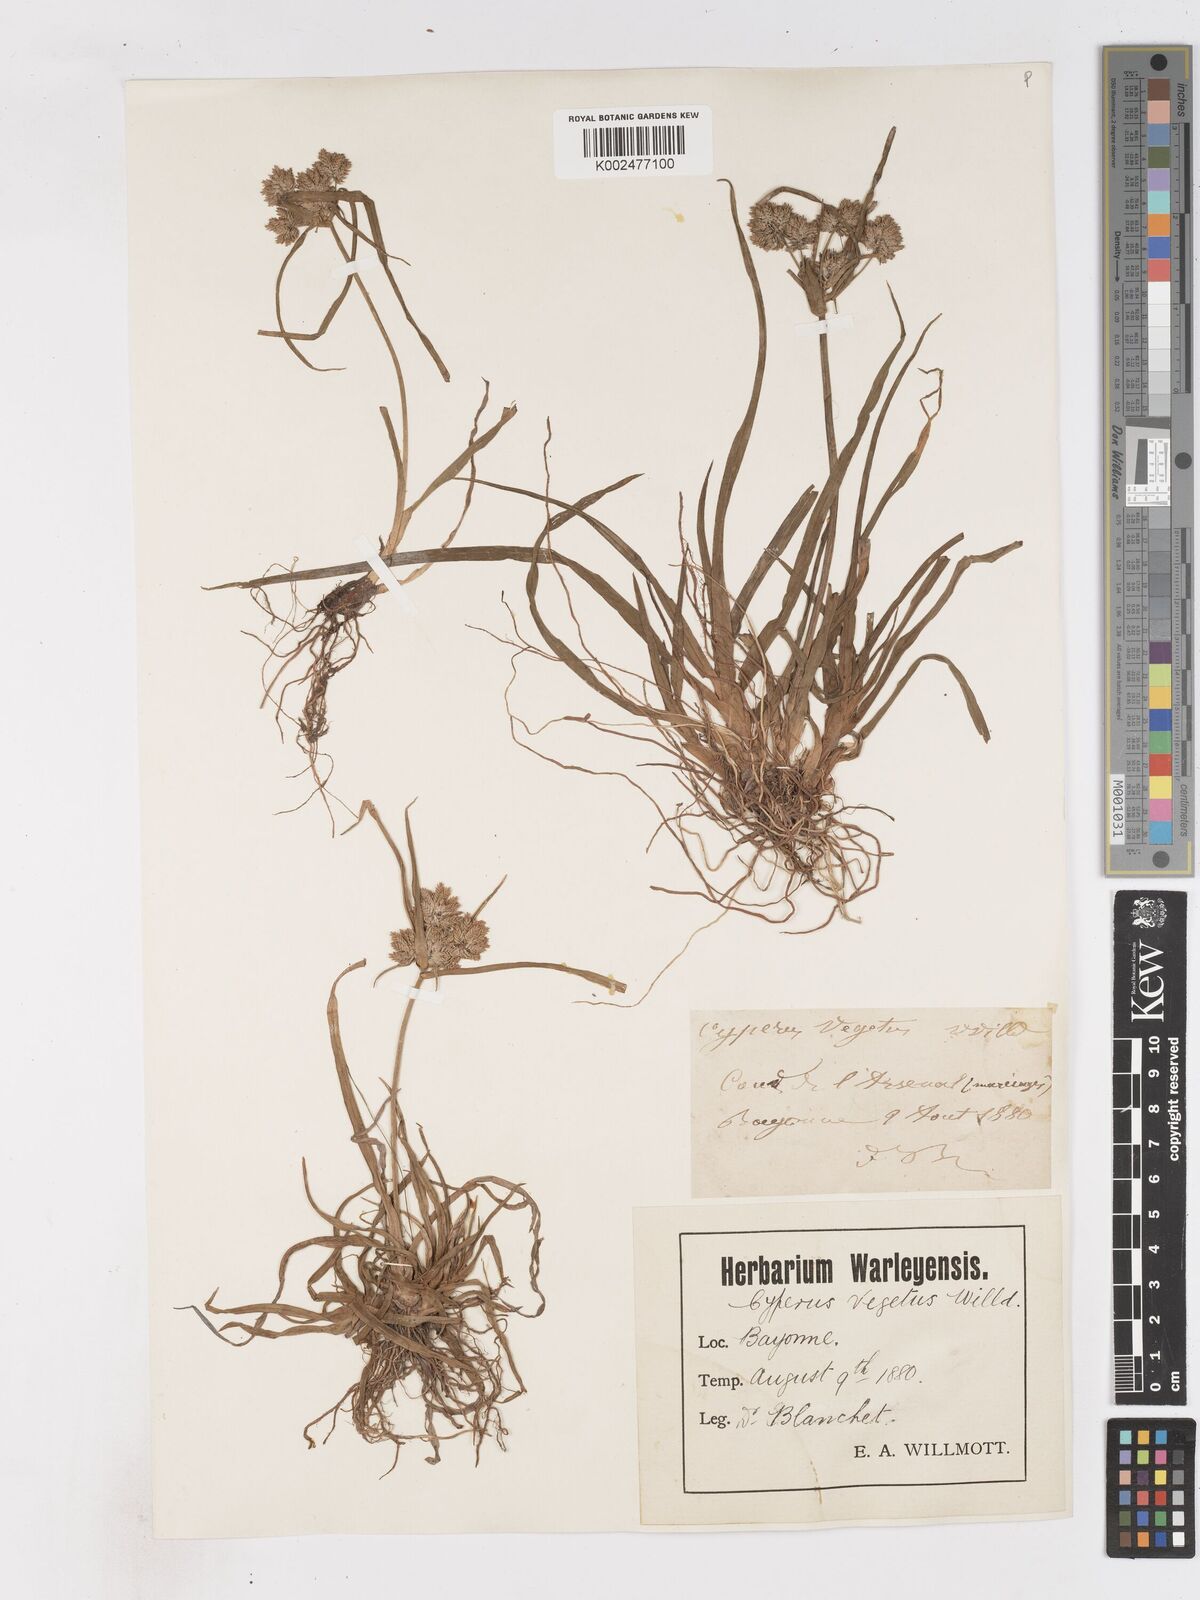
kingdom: Plantae
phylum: Tracheophyta
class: Liliopsida
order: Poales
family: Cyperaceae
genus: Cyperus
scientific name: Cyperus eragrostis
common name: Tall flatsedge
